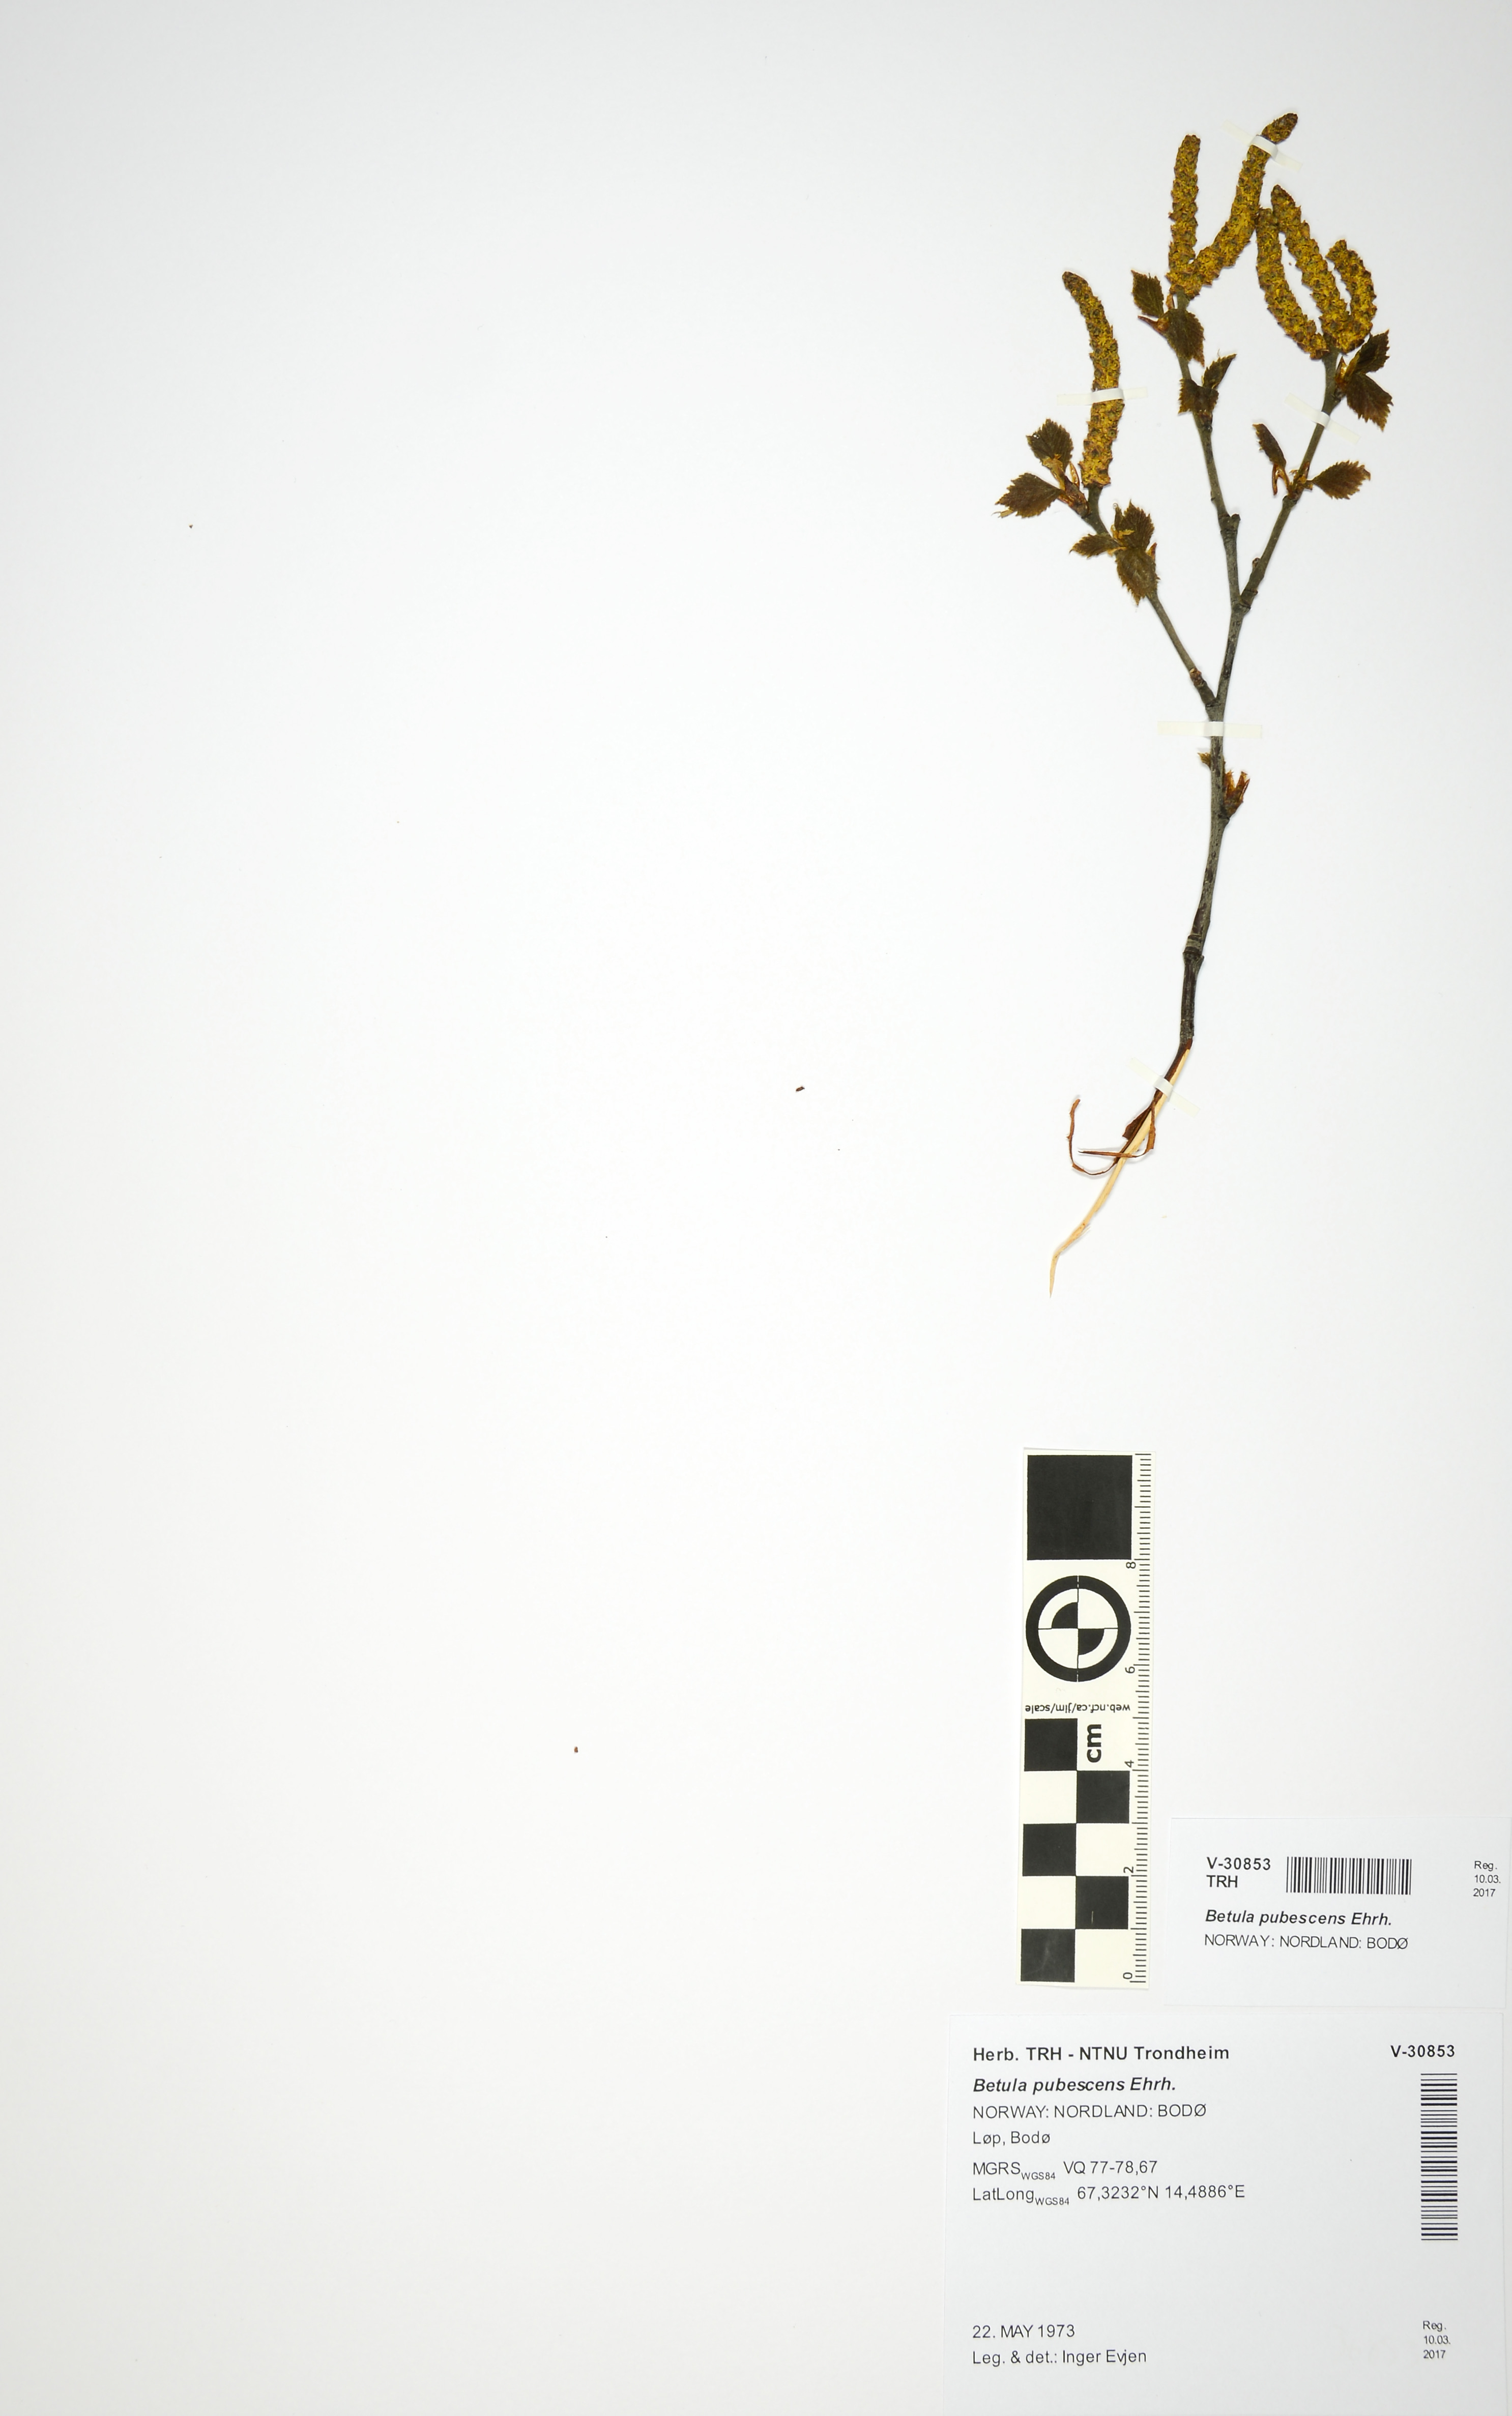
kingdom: Plantae
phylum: Tracheophyta
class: Magnoliopsida
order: Fagales
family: Betulaceae
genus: Betula
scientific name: Betula pubescens
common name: Downy birch
